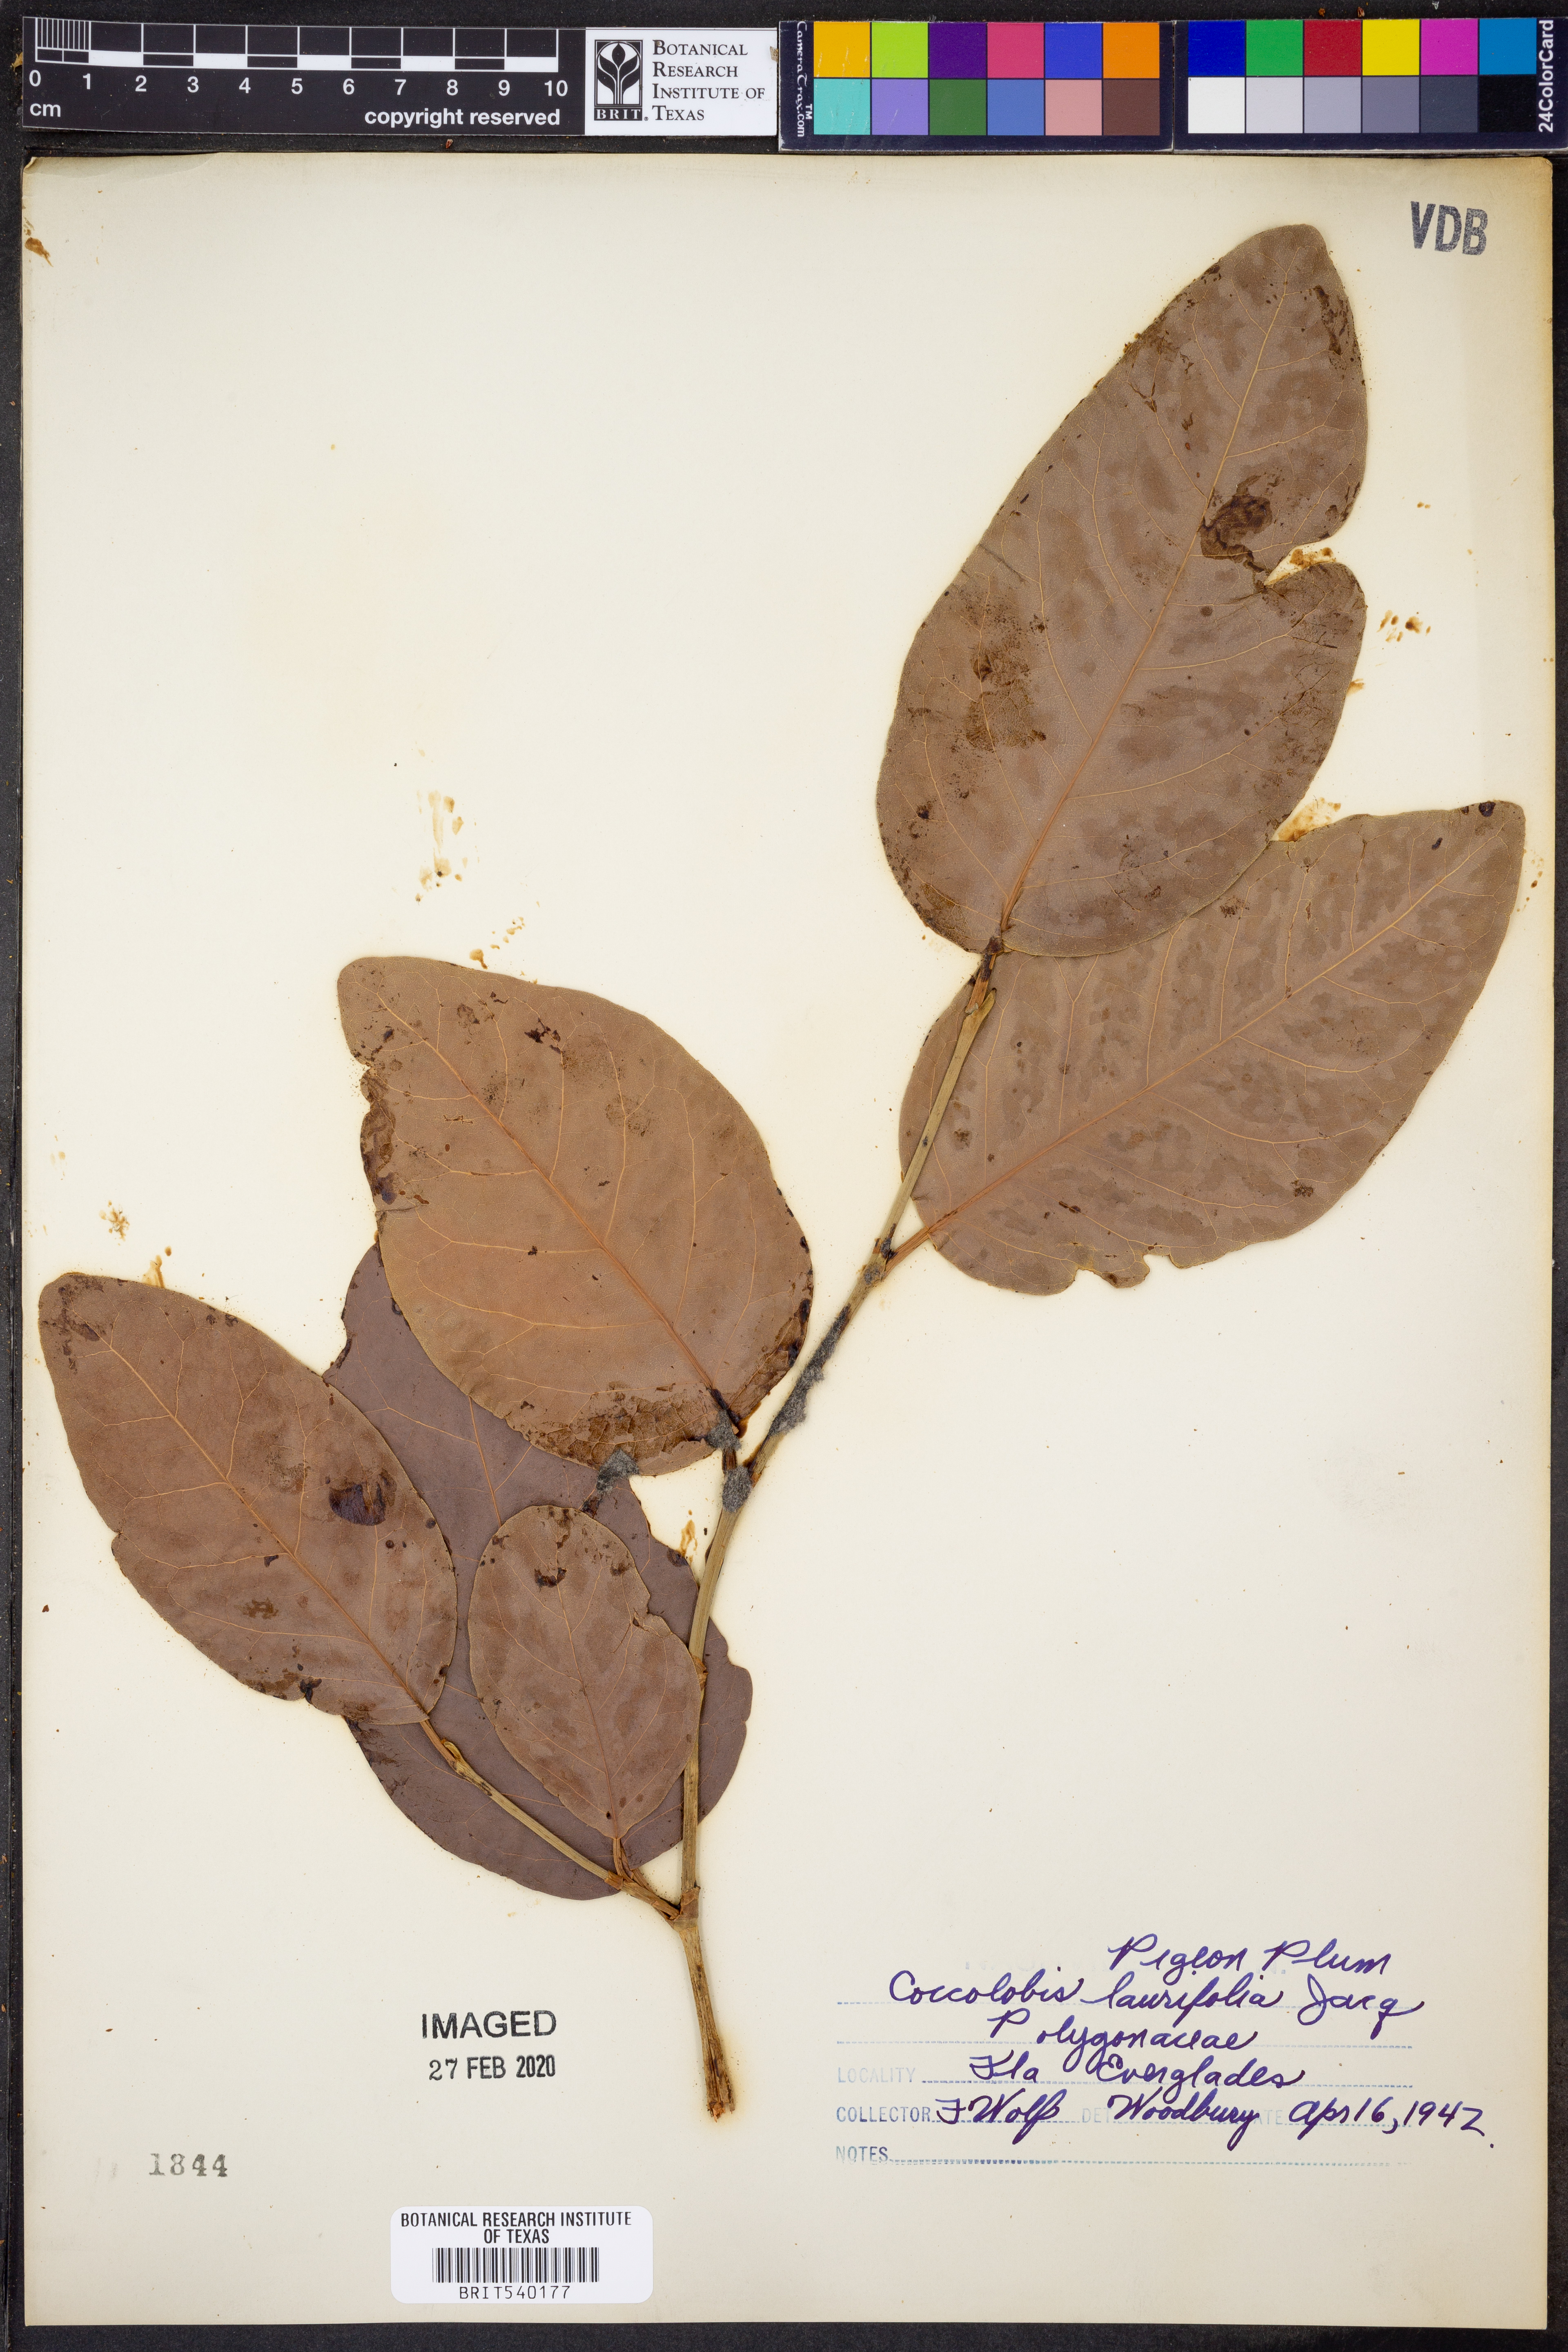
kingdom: Plantae
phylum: Tracheophyta
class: Magnoliopsida
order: Caryophyllales
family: Polygonaceae
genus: Coccoloba
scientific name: Coccoloba diversifolia
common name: Pigeon-plum
